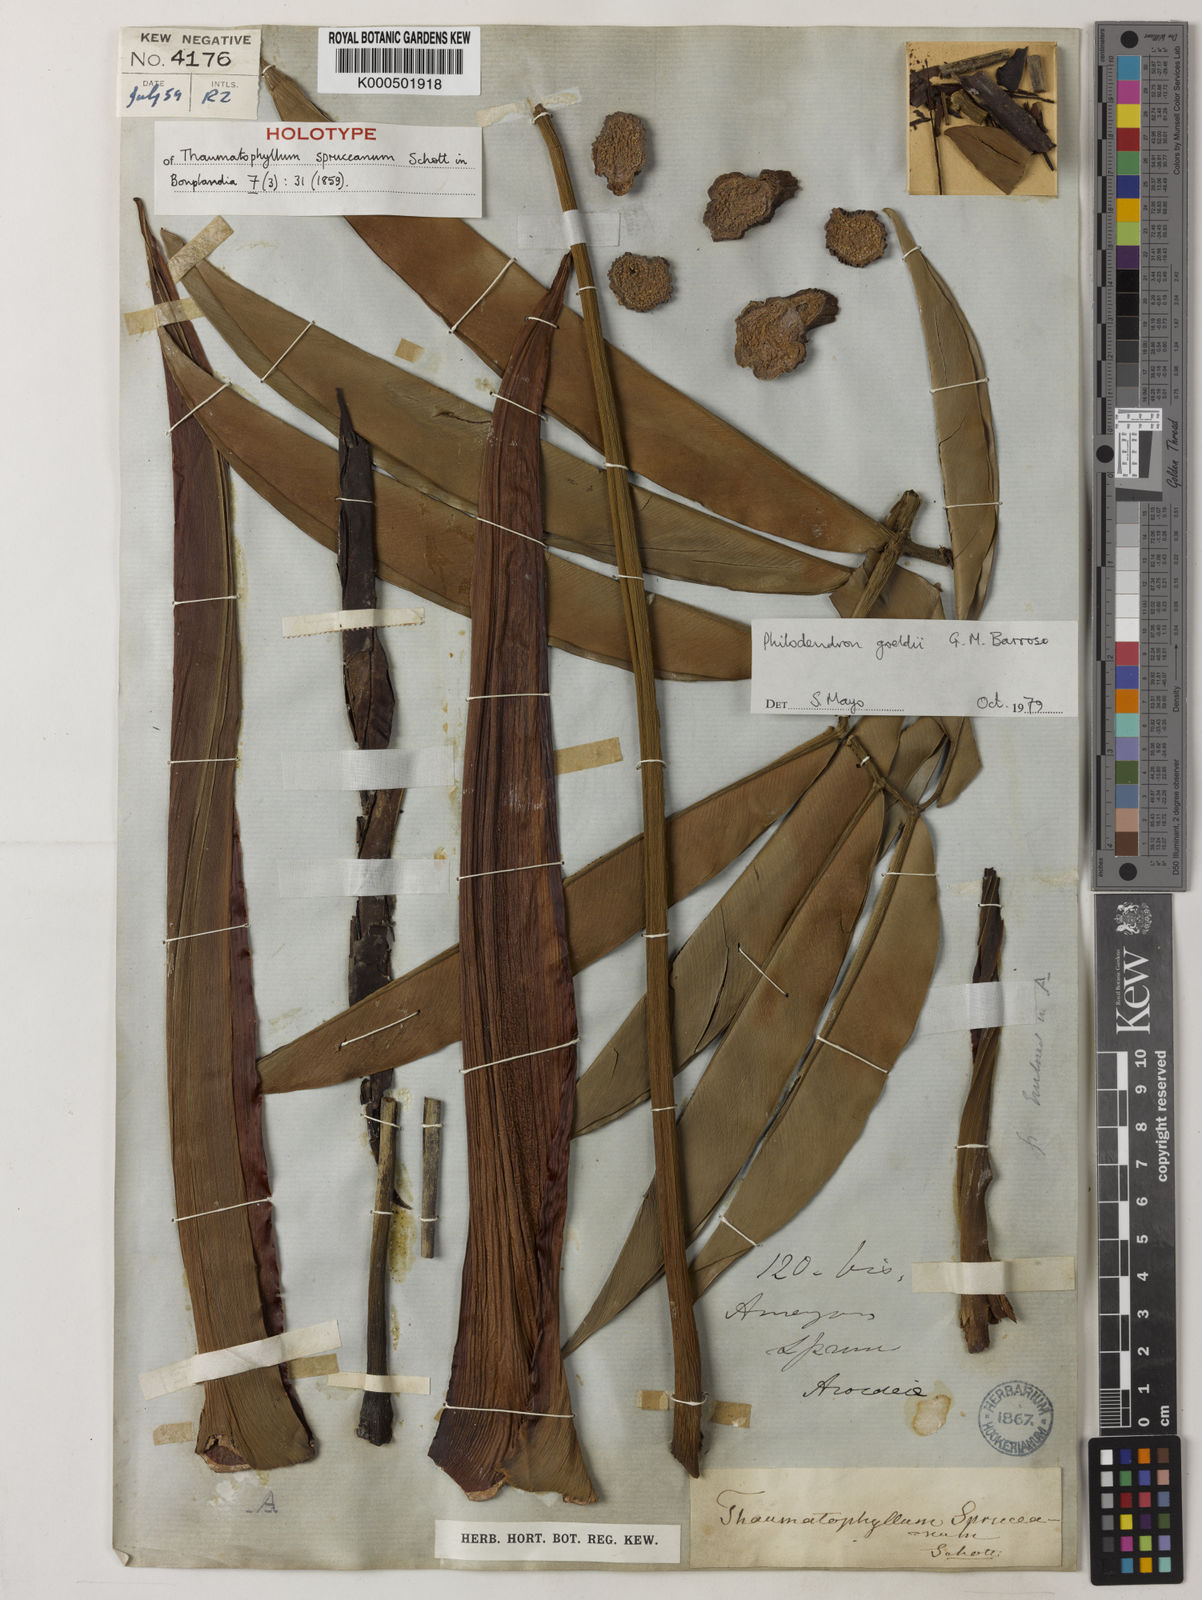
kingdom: Plantae
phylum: Tracheophyta
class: Liliopsida
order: Alismatales
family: Araceae
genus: Thaumatophyllum
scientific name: Thaumatophyllum spruceanum
